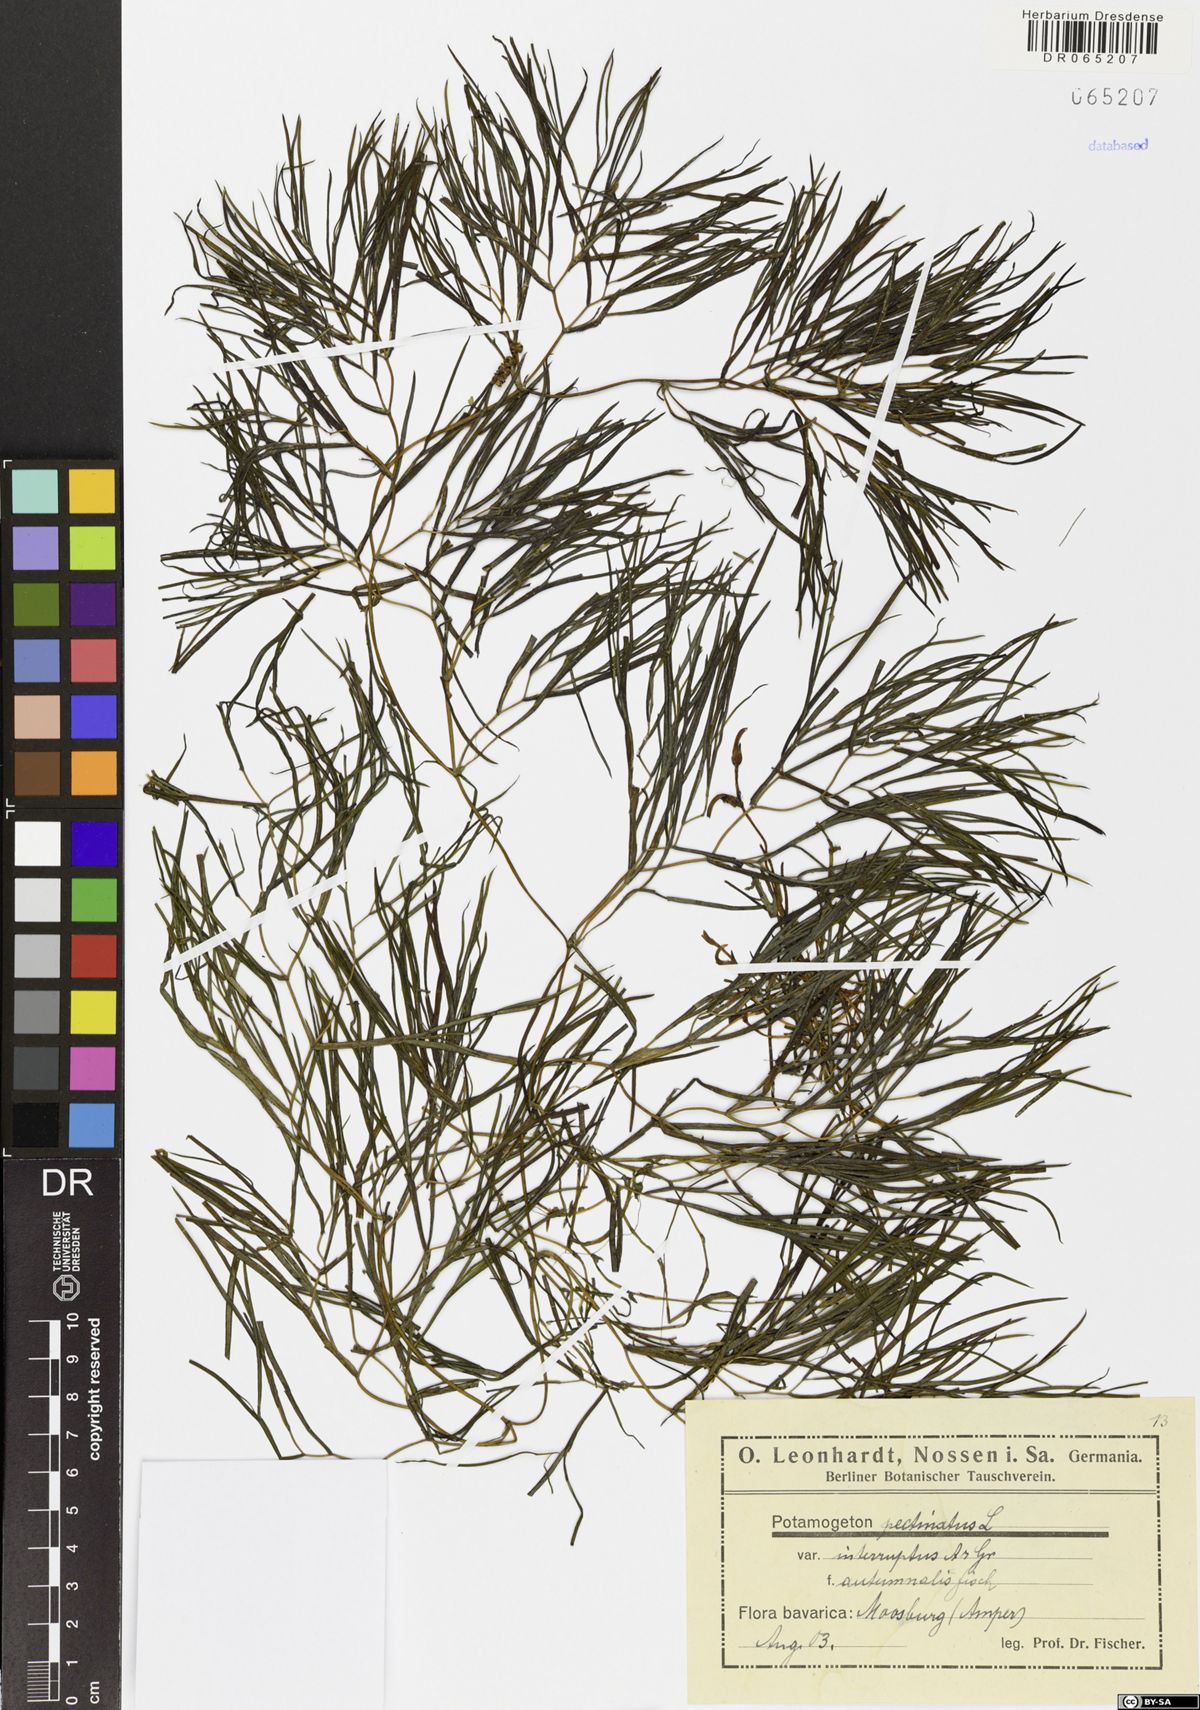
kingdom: Plantae
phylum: Tracheophyta
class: Liliopsida
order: Alismatales
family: Potamogetonaceae
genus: Stuckenia
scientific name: Stuckenia pectinata
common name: Sago pondweed
